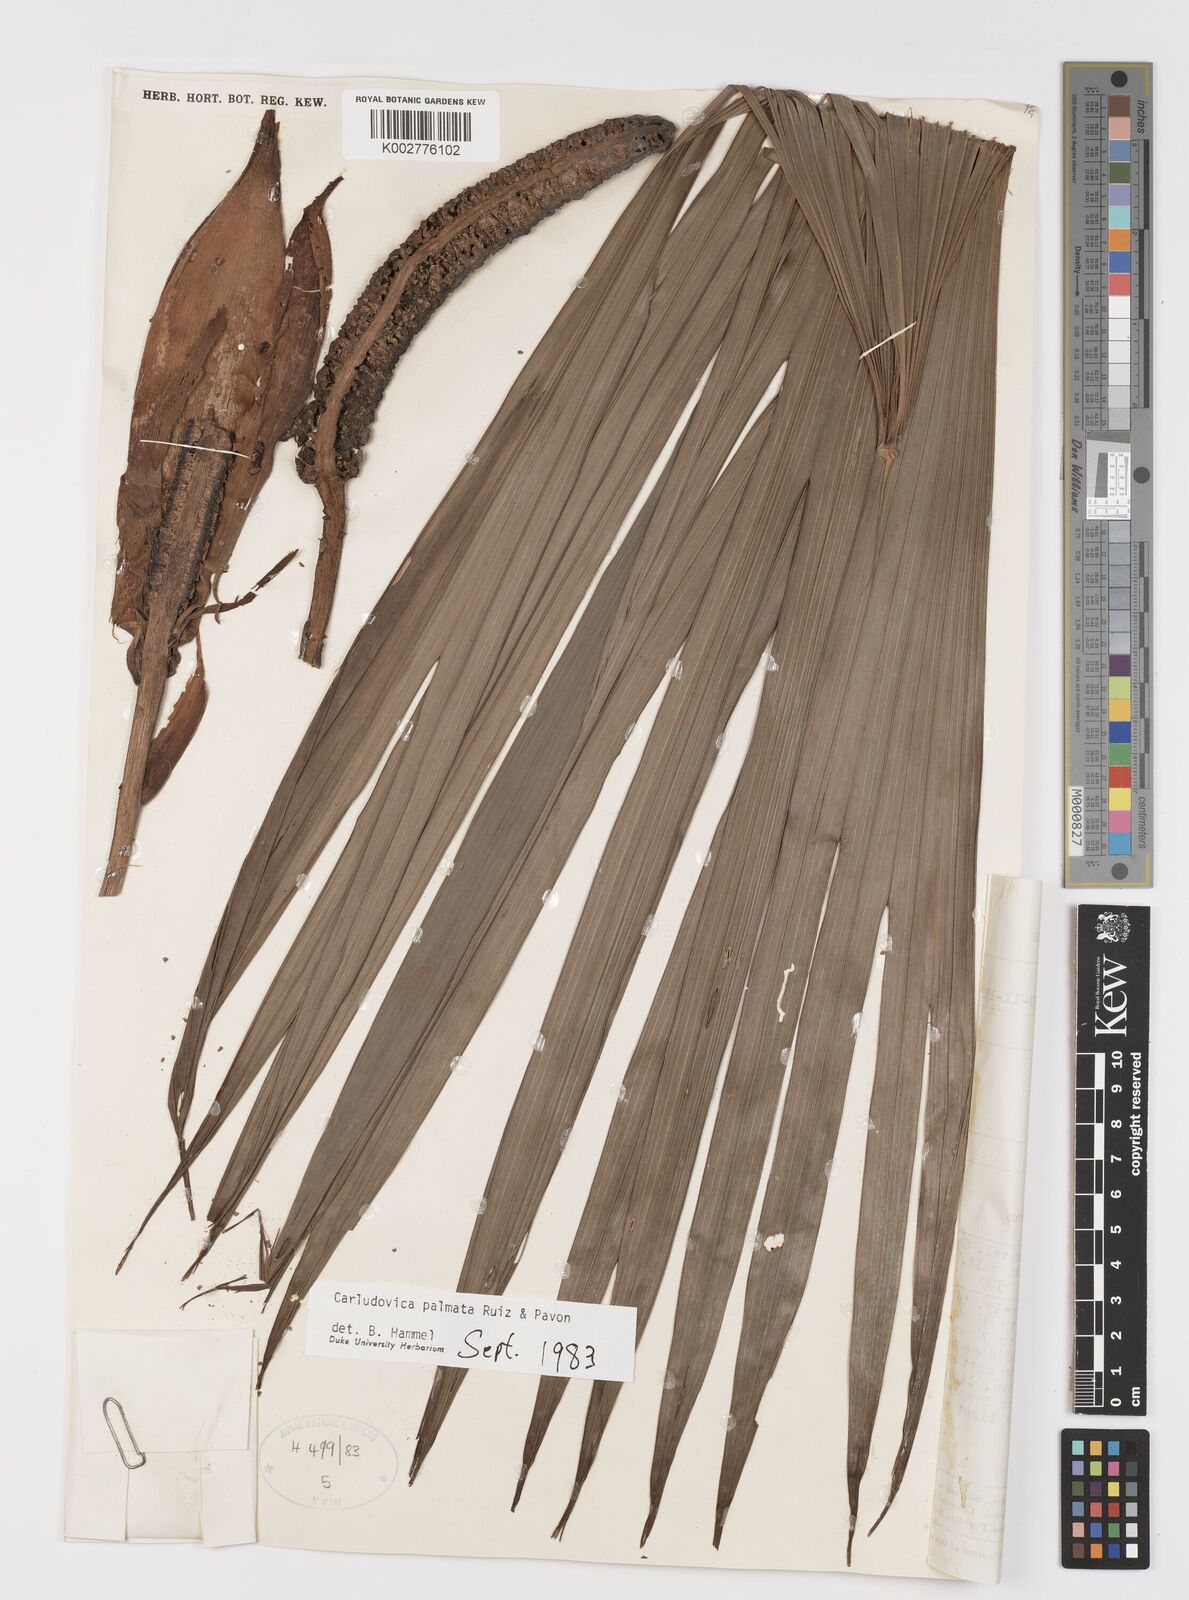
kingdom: Plantae
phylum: Tracheophyta
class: Liliopsida
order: Pandanales
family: Cyclanthaceae
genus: Carludovica
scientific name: Carludovica palmata
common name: Panama hat plant
